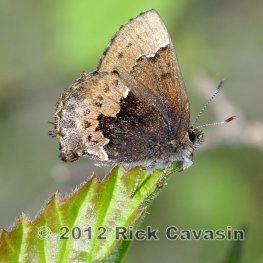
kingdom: Animalia
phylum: Arthropoda
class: Insecta
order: Lepidoptera
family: Lycaenidae
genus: Incisalia
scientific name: Incisalia henrici
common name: Henry's Elfin
